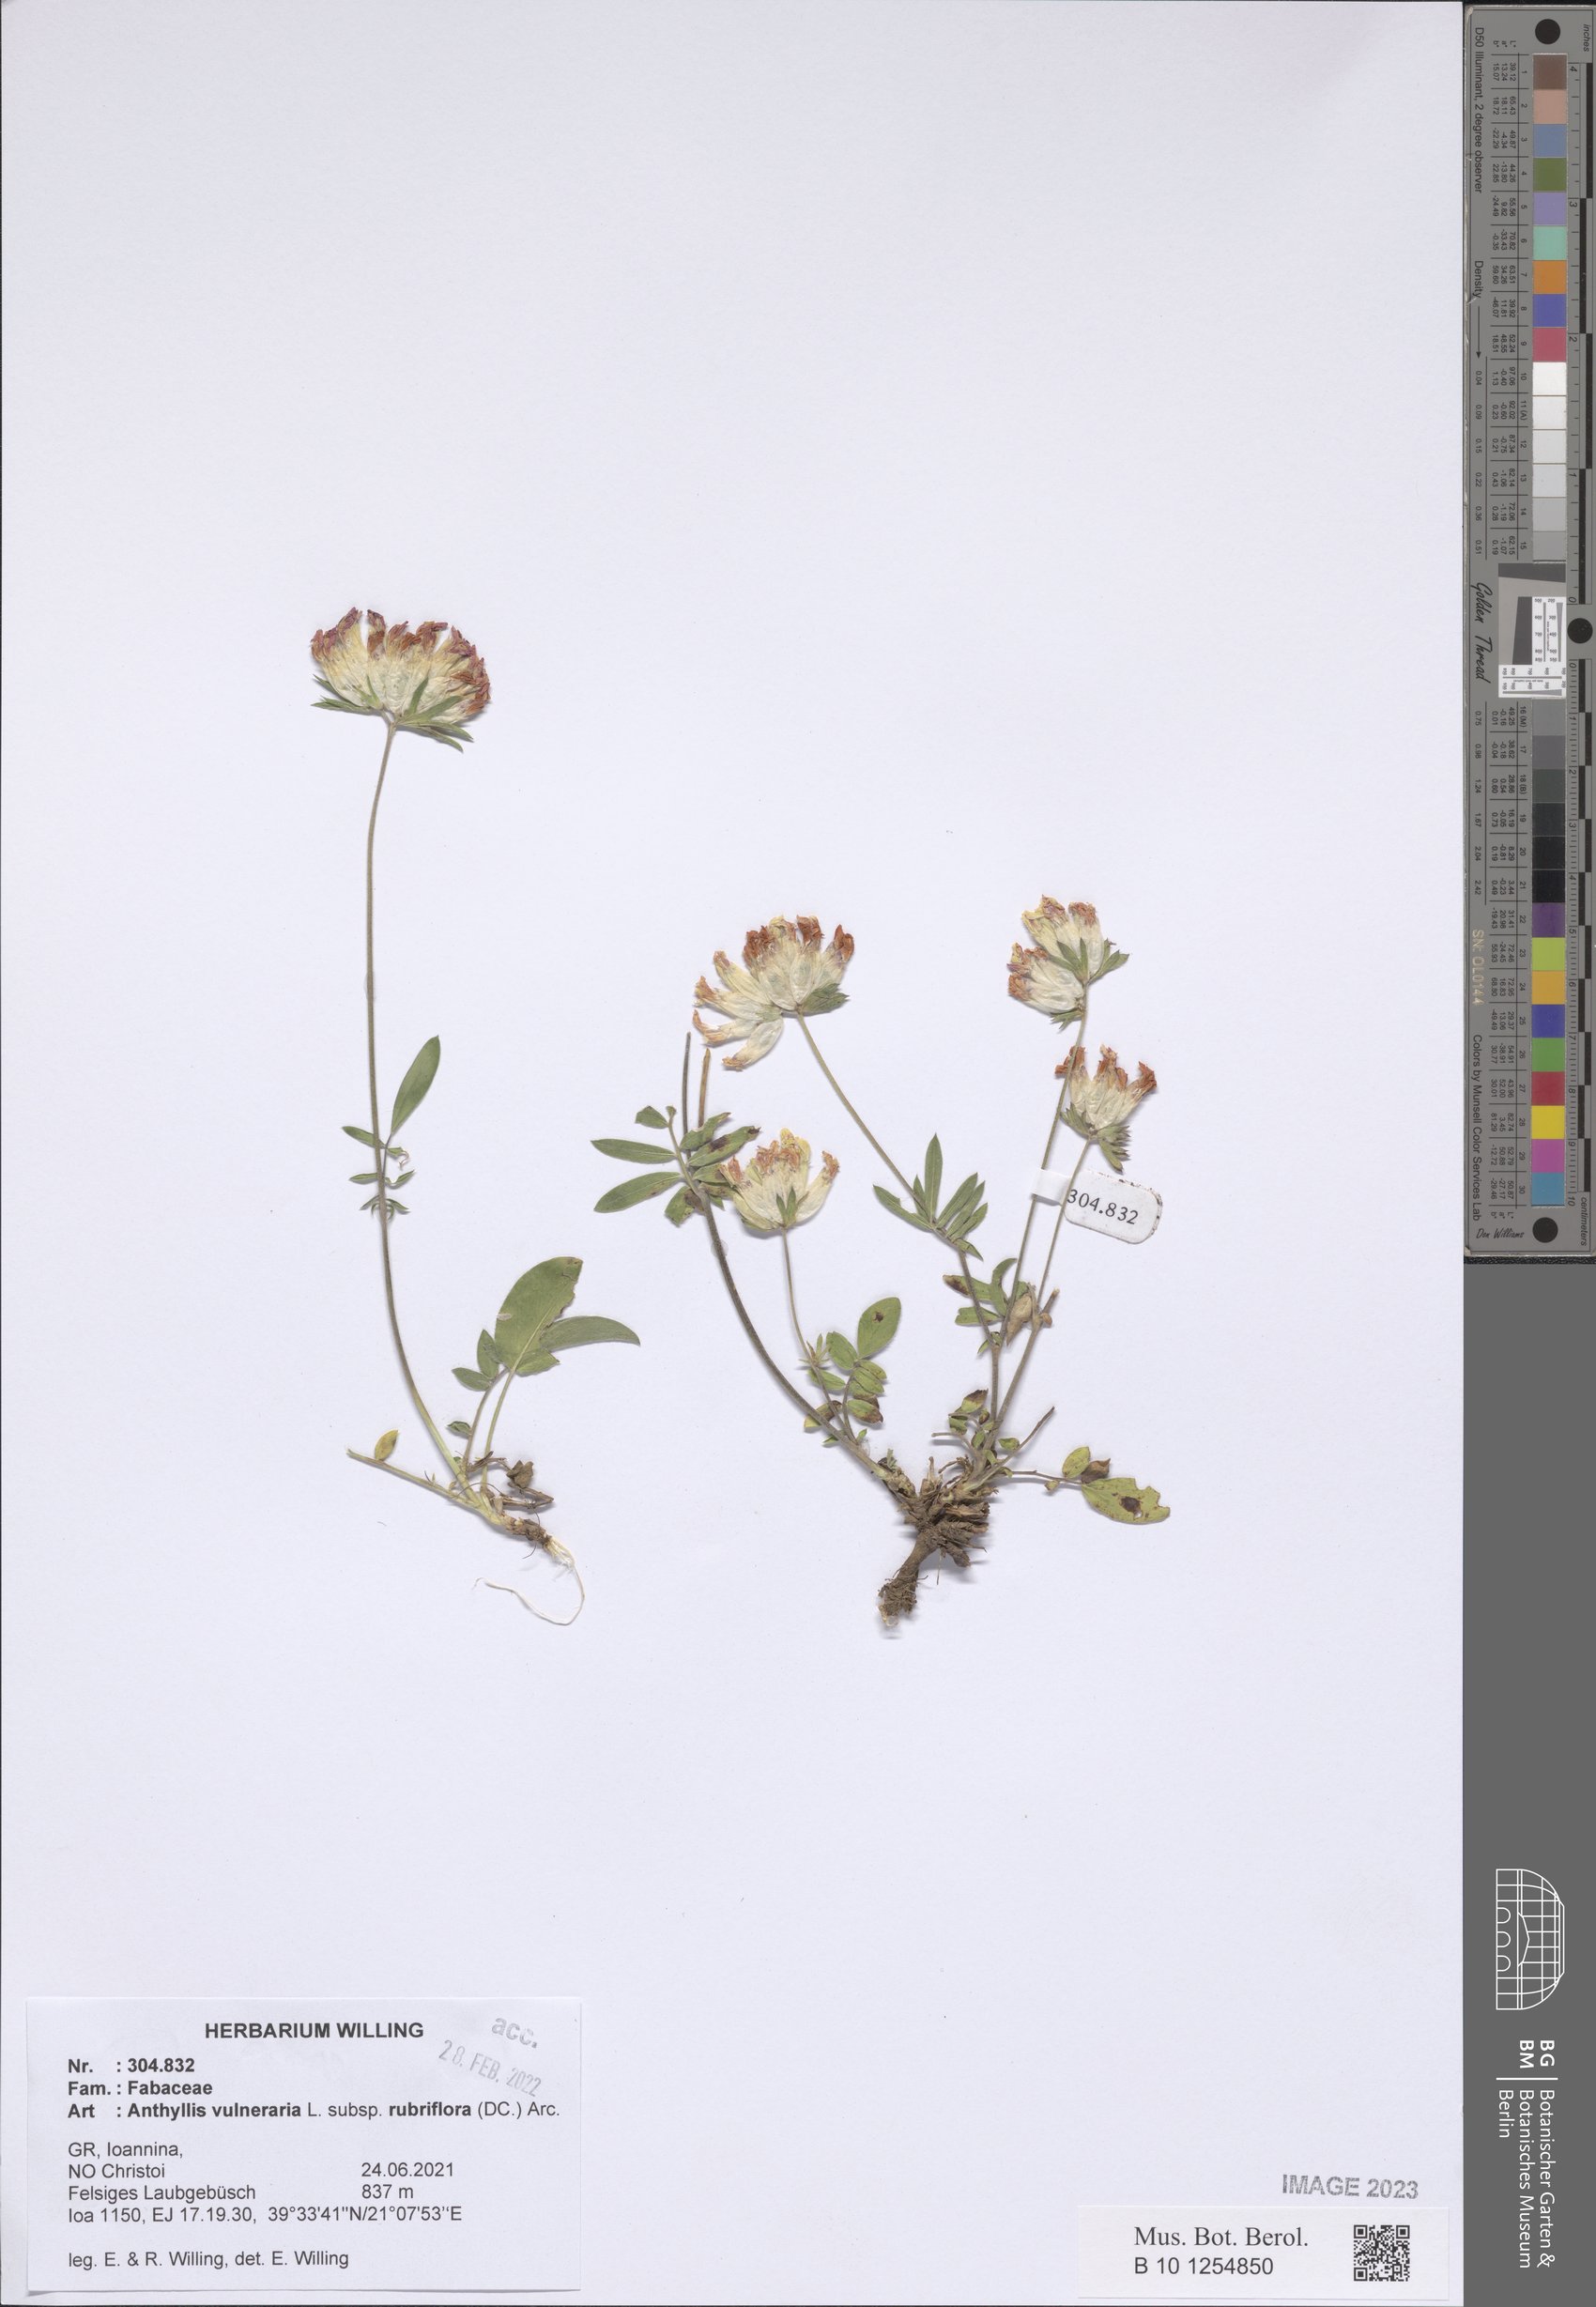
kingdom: Plantae
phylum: Tracheophyta
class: Magnoliopsida
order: Fabales
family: Fabaceae
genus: Anthyllis
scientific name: Anthyllis vulneraria
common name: Kidney vetch
